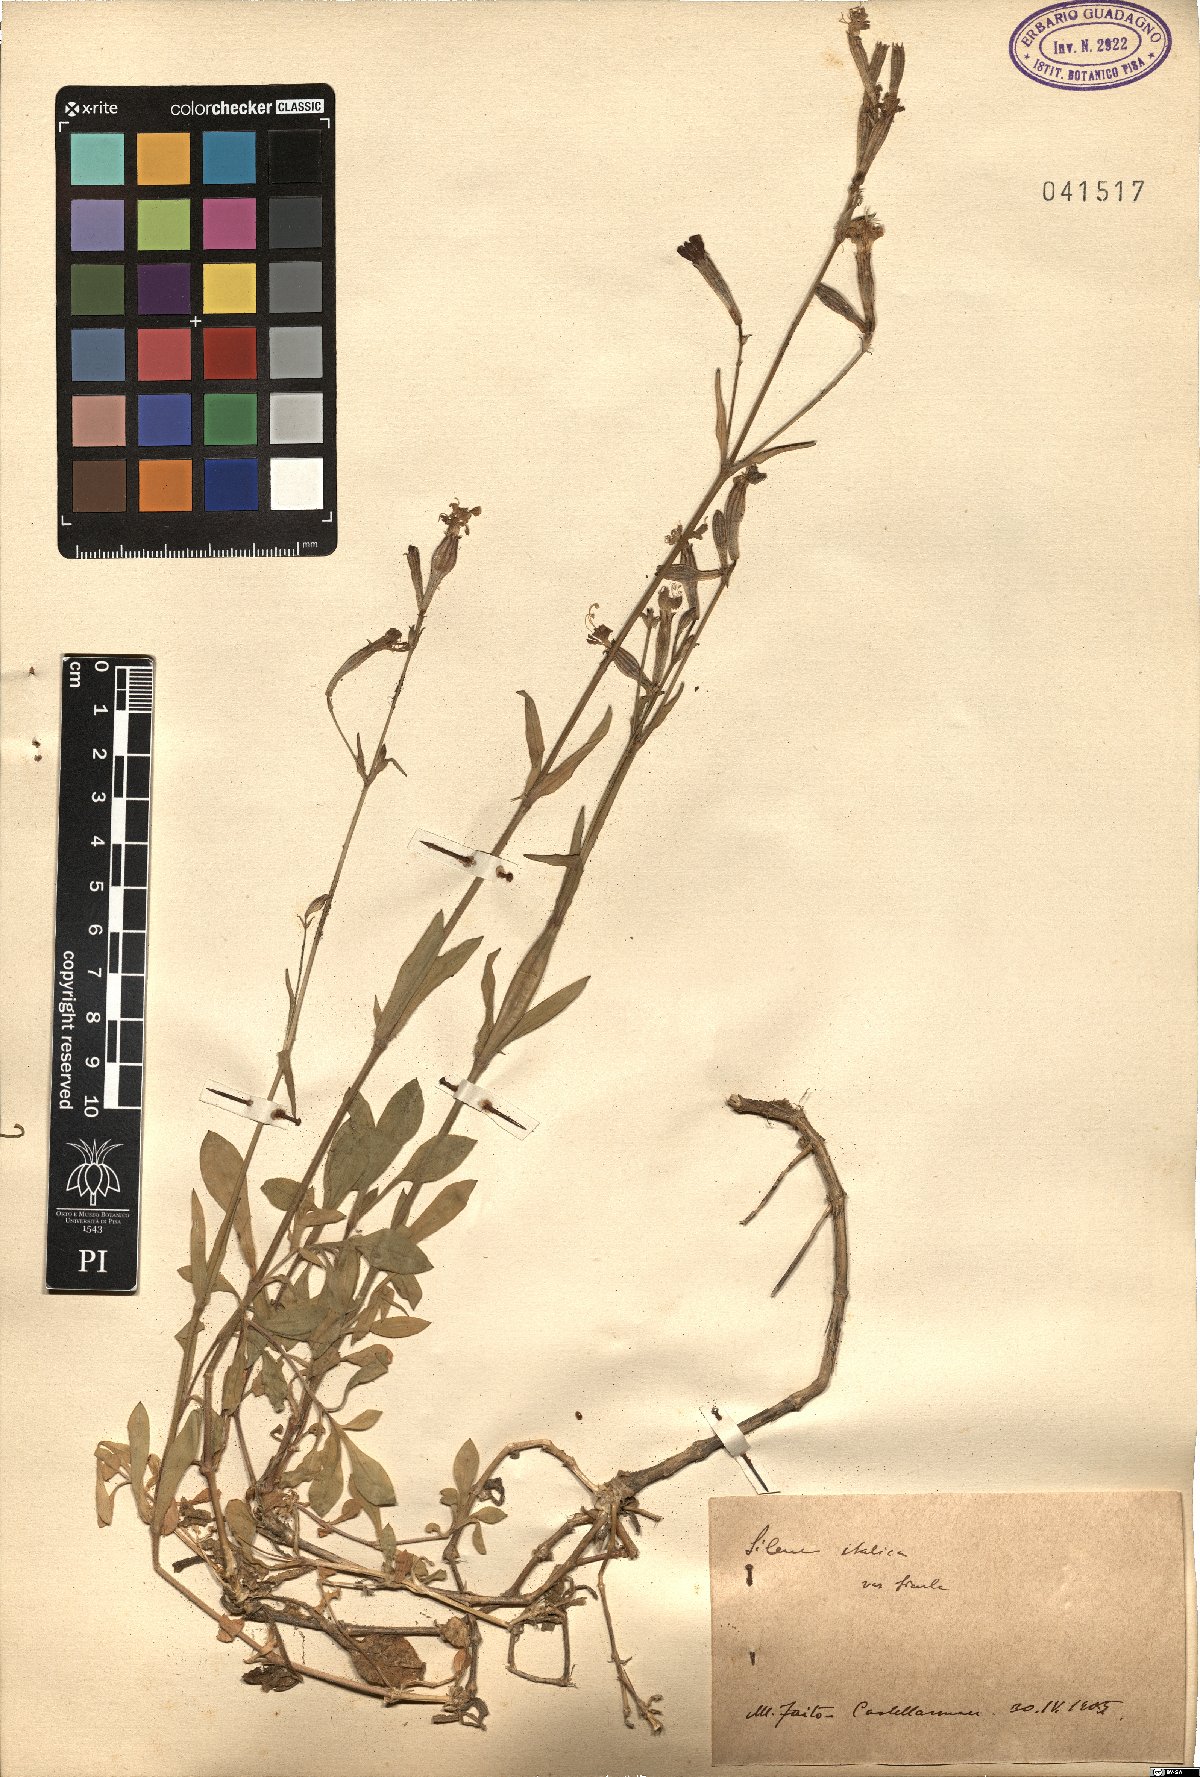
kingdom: Plantae
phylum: Tracheophyta
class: Magnoliopsida
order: Caryophyllales
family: Caryophyllaceae
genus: Silene
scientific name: Silene italica
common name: Italian catchfly
